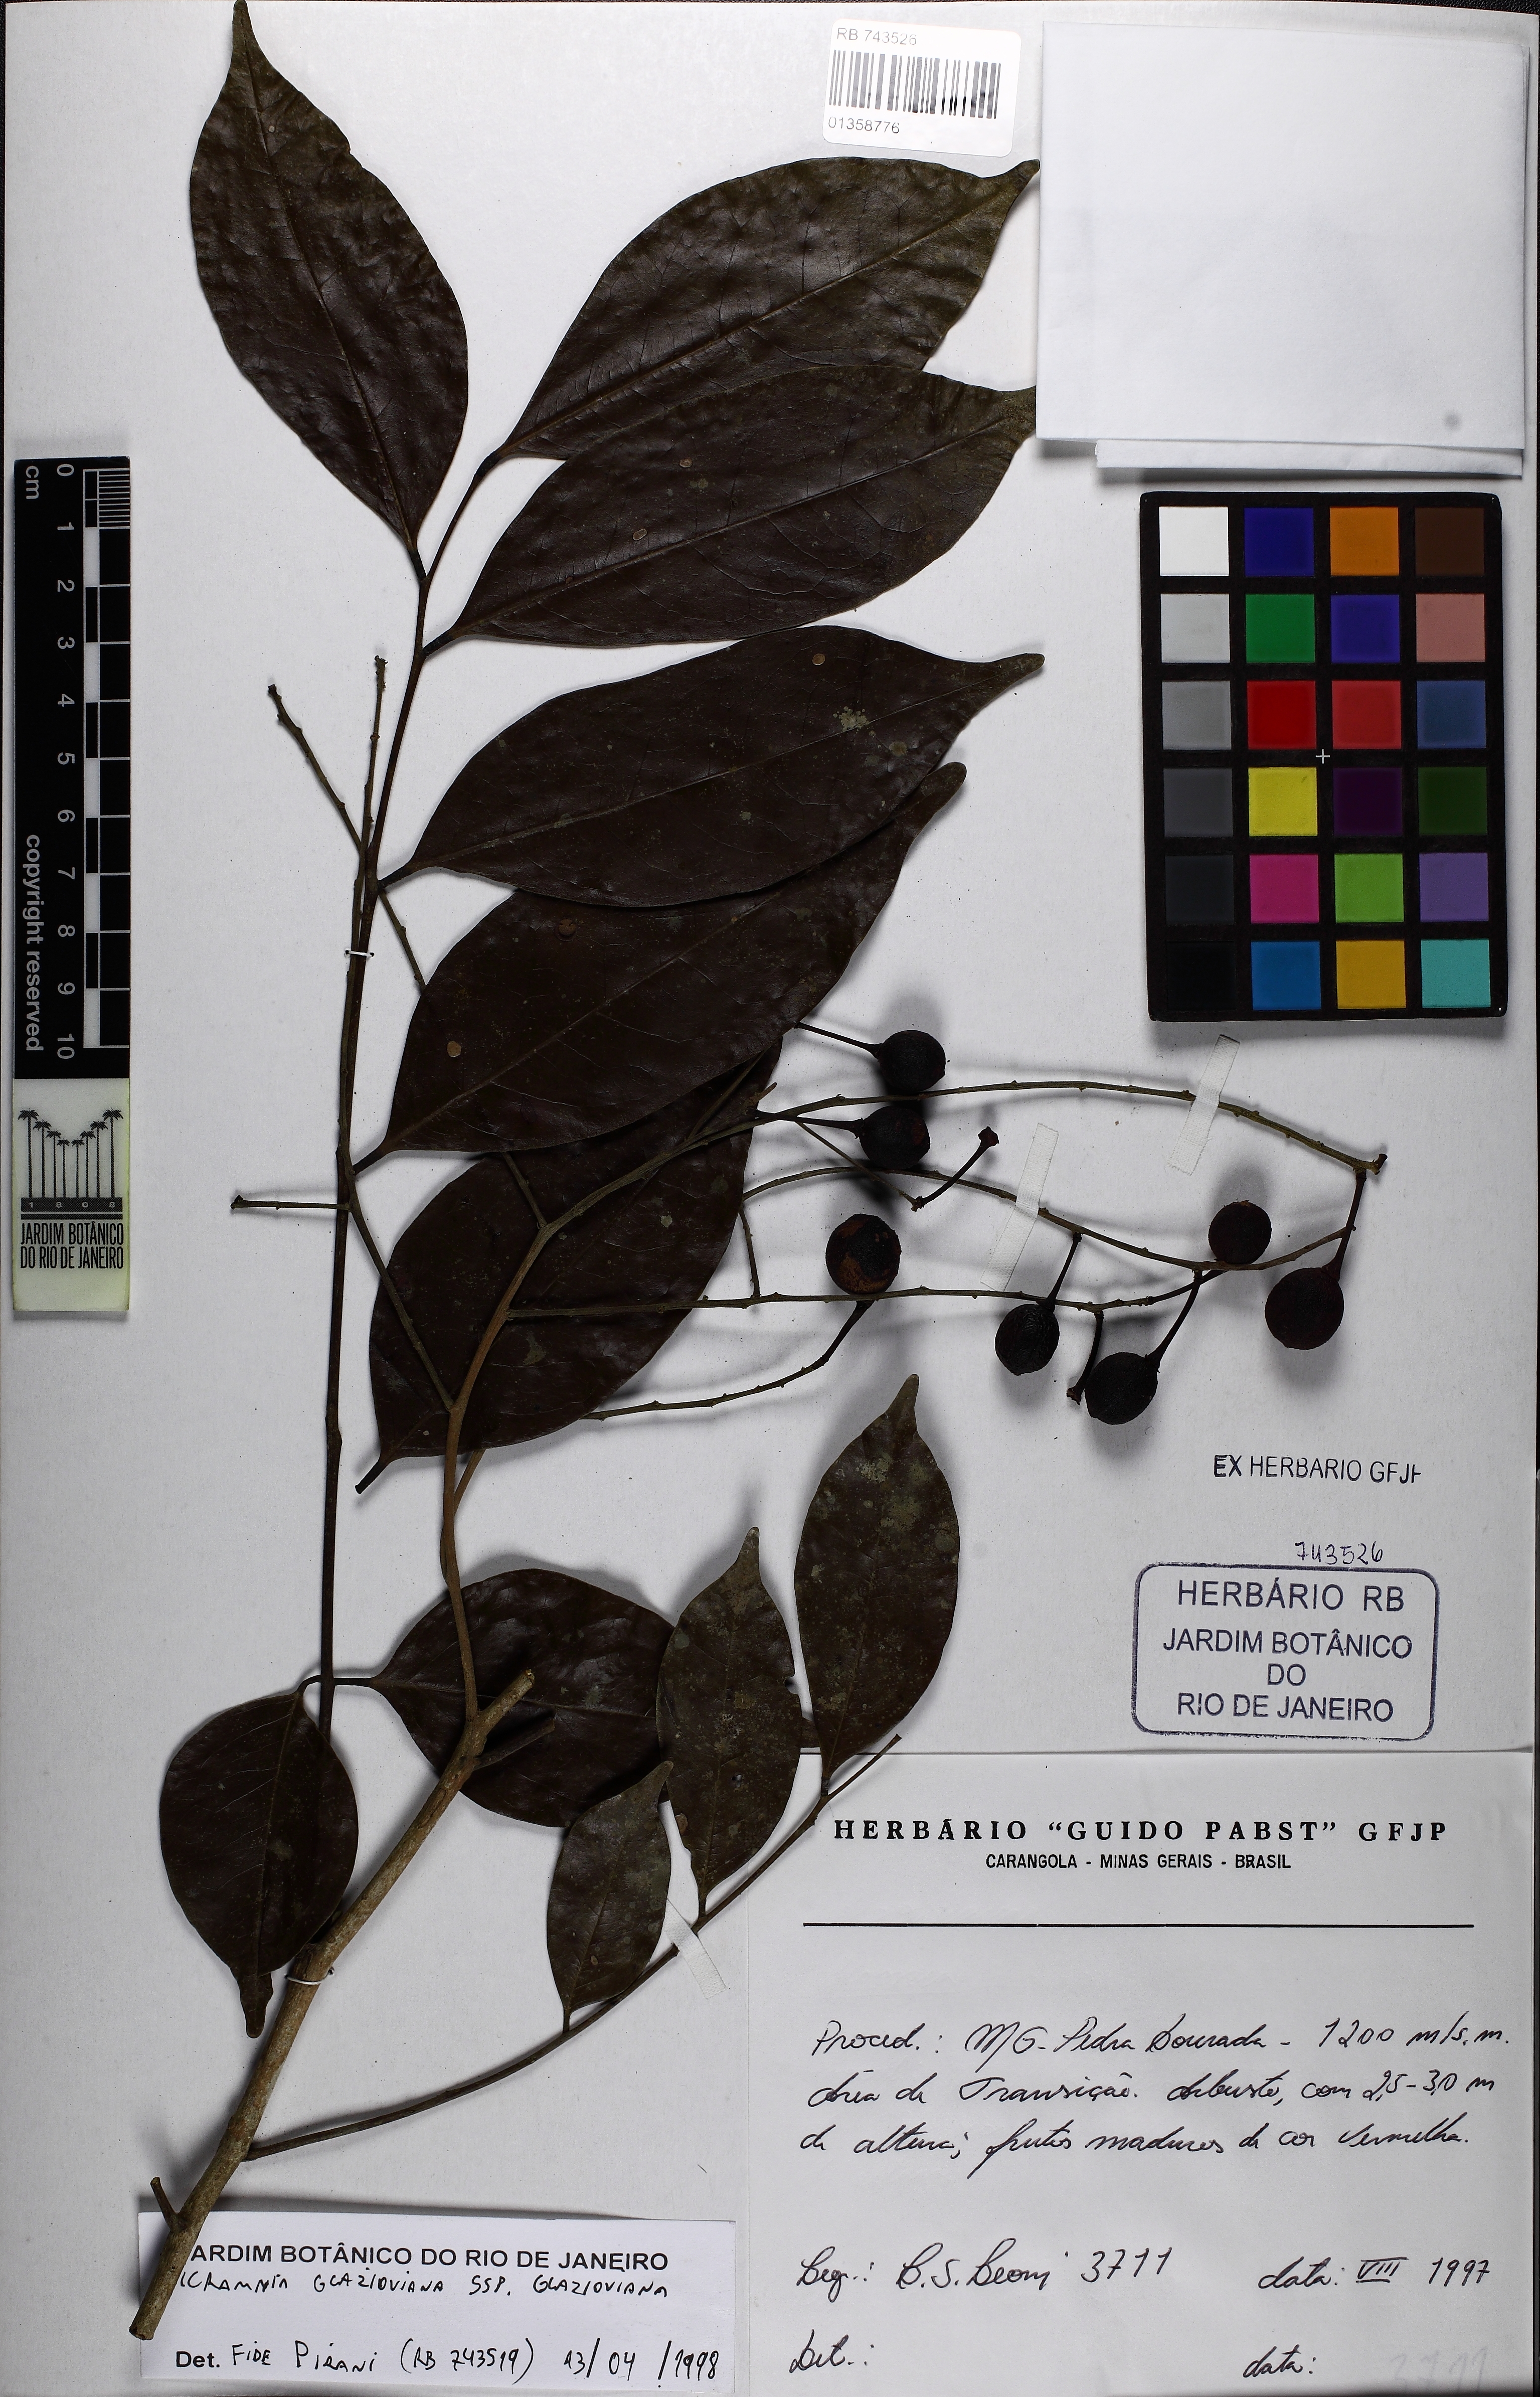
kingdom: Plantae
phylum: Tracheophyta
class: Magnoliopsida
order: Picramniales
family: Picramniaceae
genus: Picramnia
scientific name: Picramnia glazioviana
